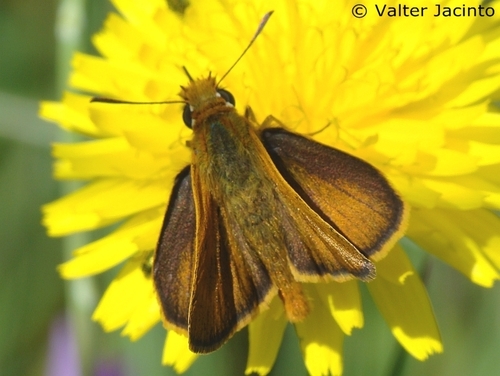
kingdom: Animalia
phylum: Arthropoda
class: Insecta
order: Lepidoptera
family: Hesperiidae
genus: Thymelicus
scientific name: Thymelicus acteon
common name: Lulworth skipper
